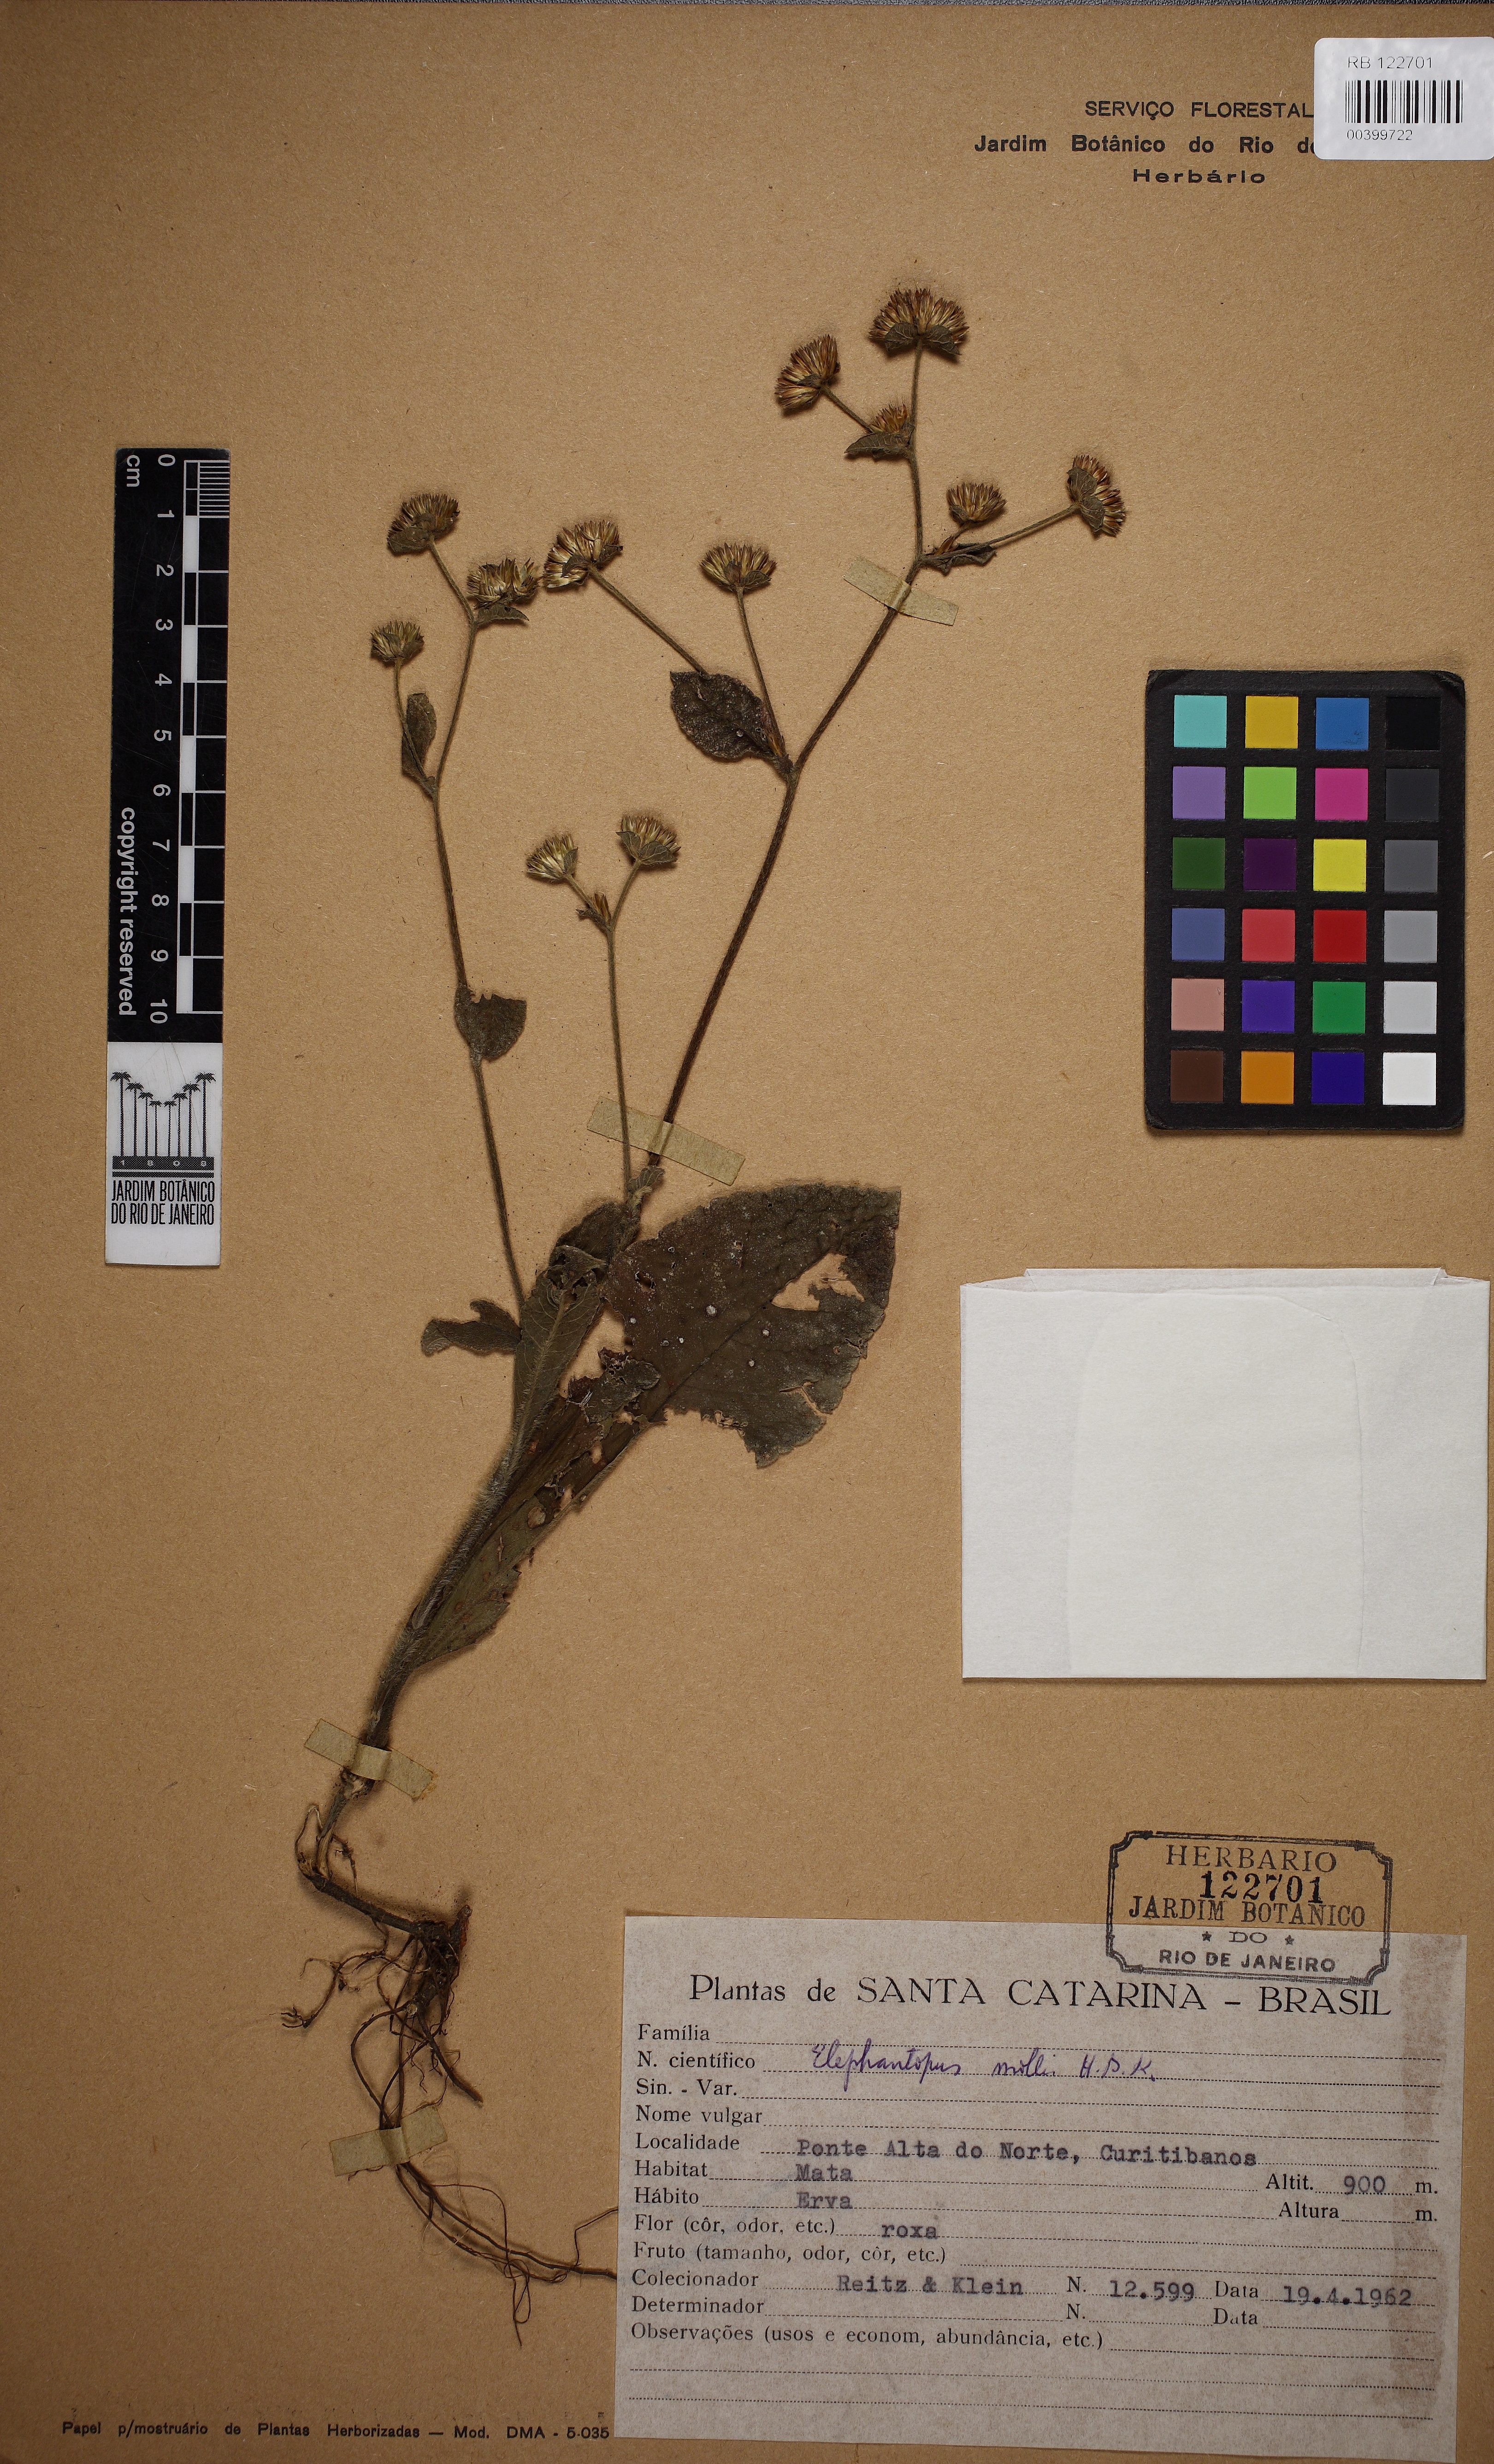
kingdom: Plantae
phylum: Tracheophyta
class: Magnoliopsida
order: Asterales
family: Asteraceae
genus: Elephantopus
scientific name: Elephantopus mollis
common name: Soft elephantsfoot
